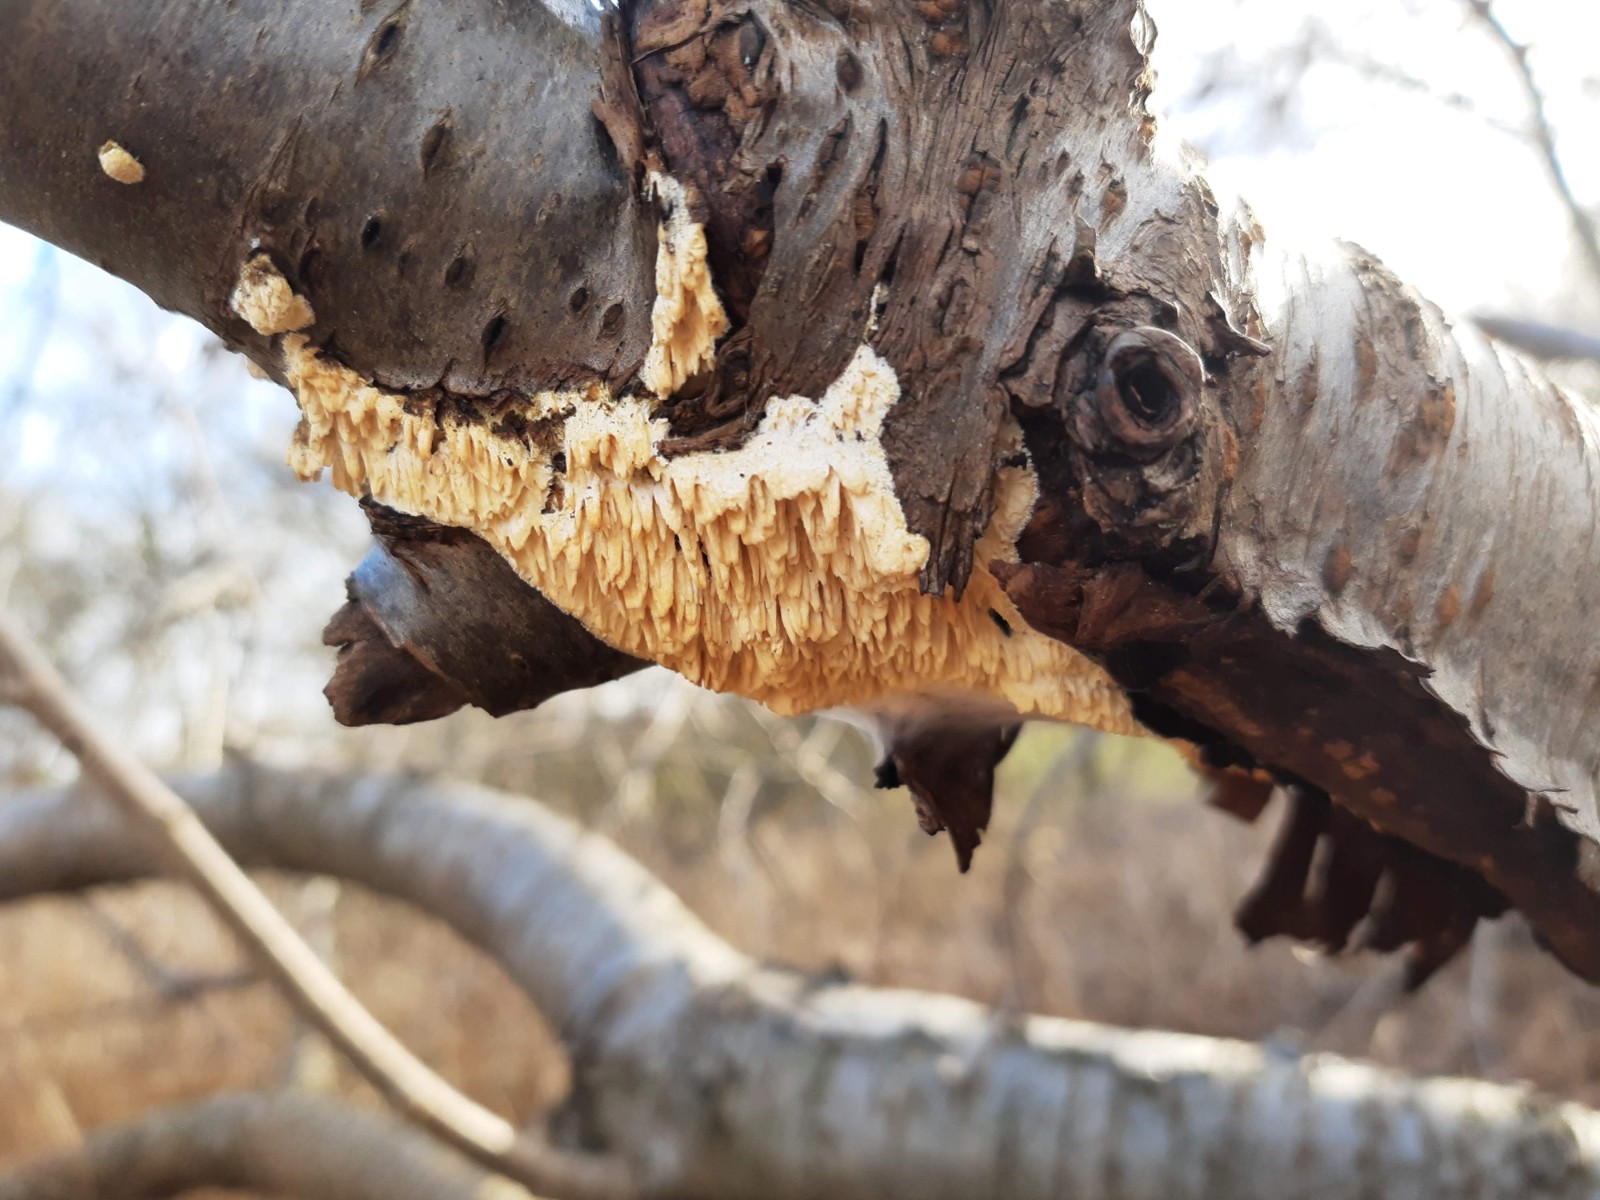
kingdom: Fungi
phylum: Basidiomycota
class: Agaricomycetes
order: Hymenochaetales
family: Schizoporaceae
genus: Xylodon
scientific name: Xylodon radula
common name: grovtandet kalkskind
